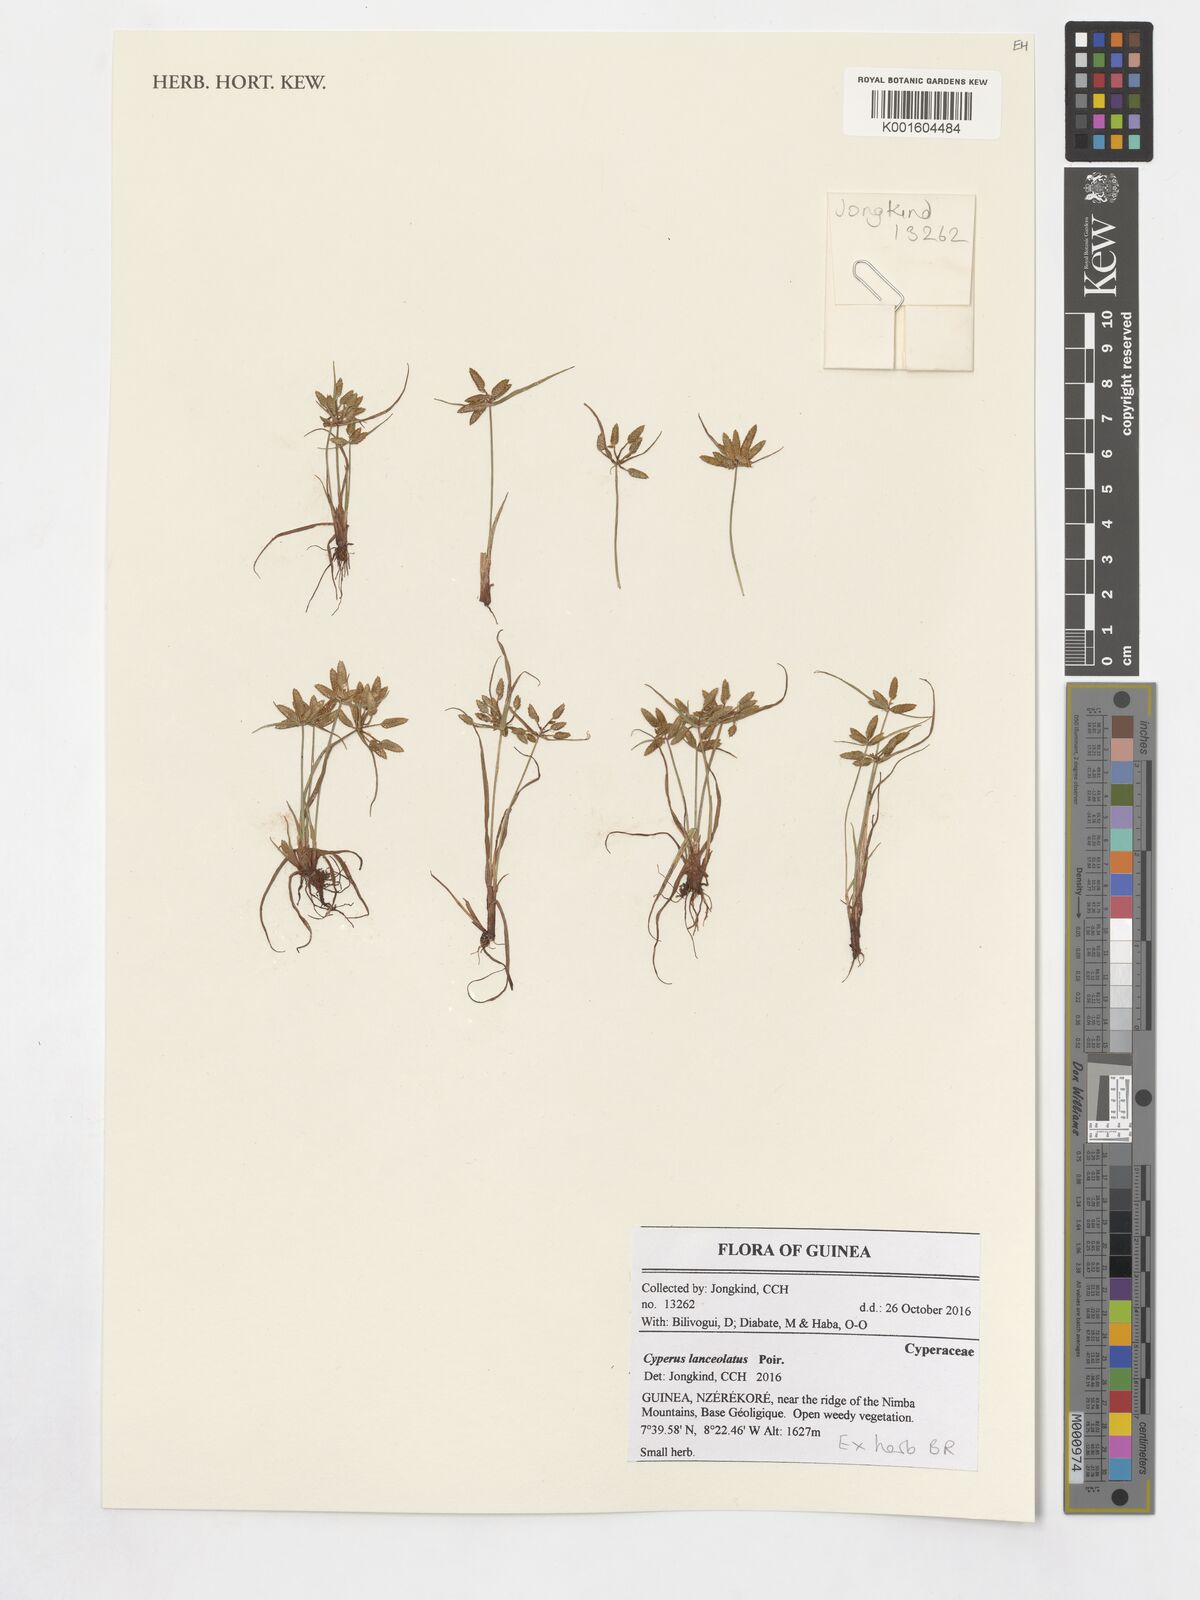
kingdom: Plantae
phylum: Tracheophyta
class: Liliopsida
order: Poales
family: Cyperaceae
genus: Cyperus
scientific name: Cyperus lanceolatus
